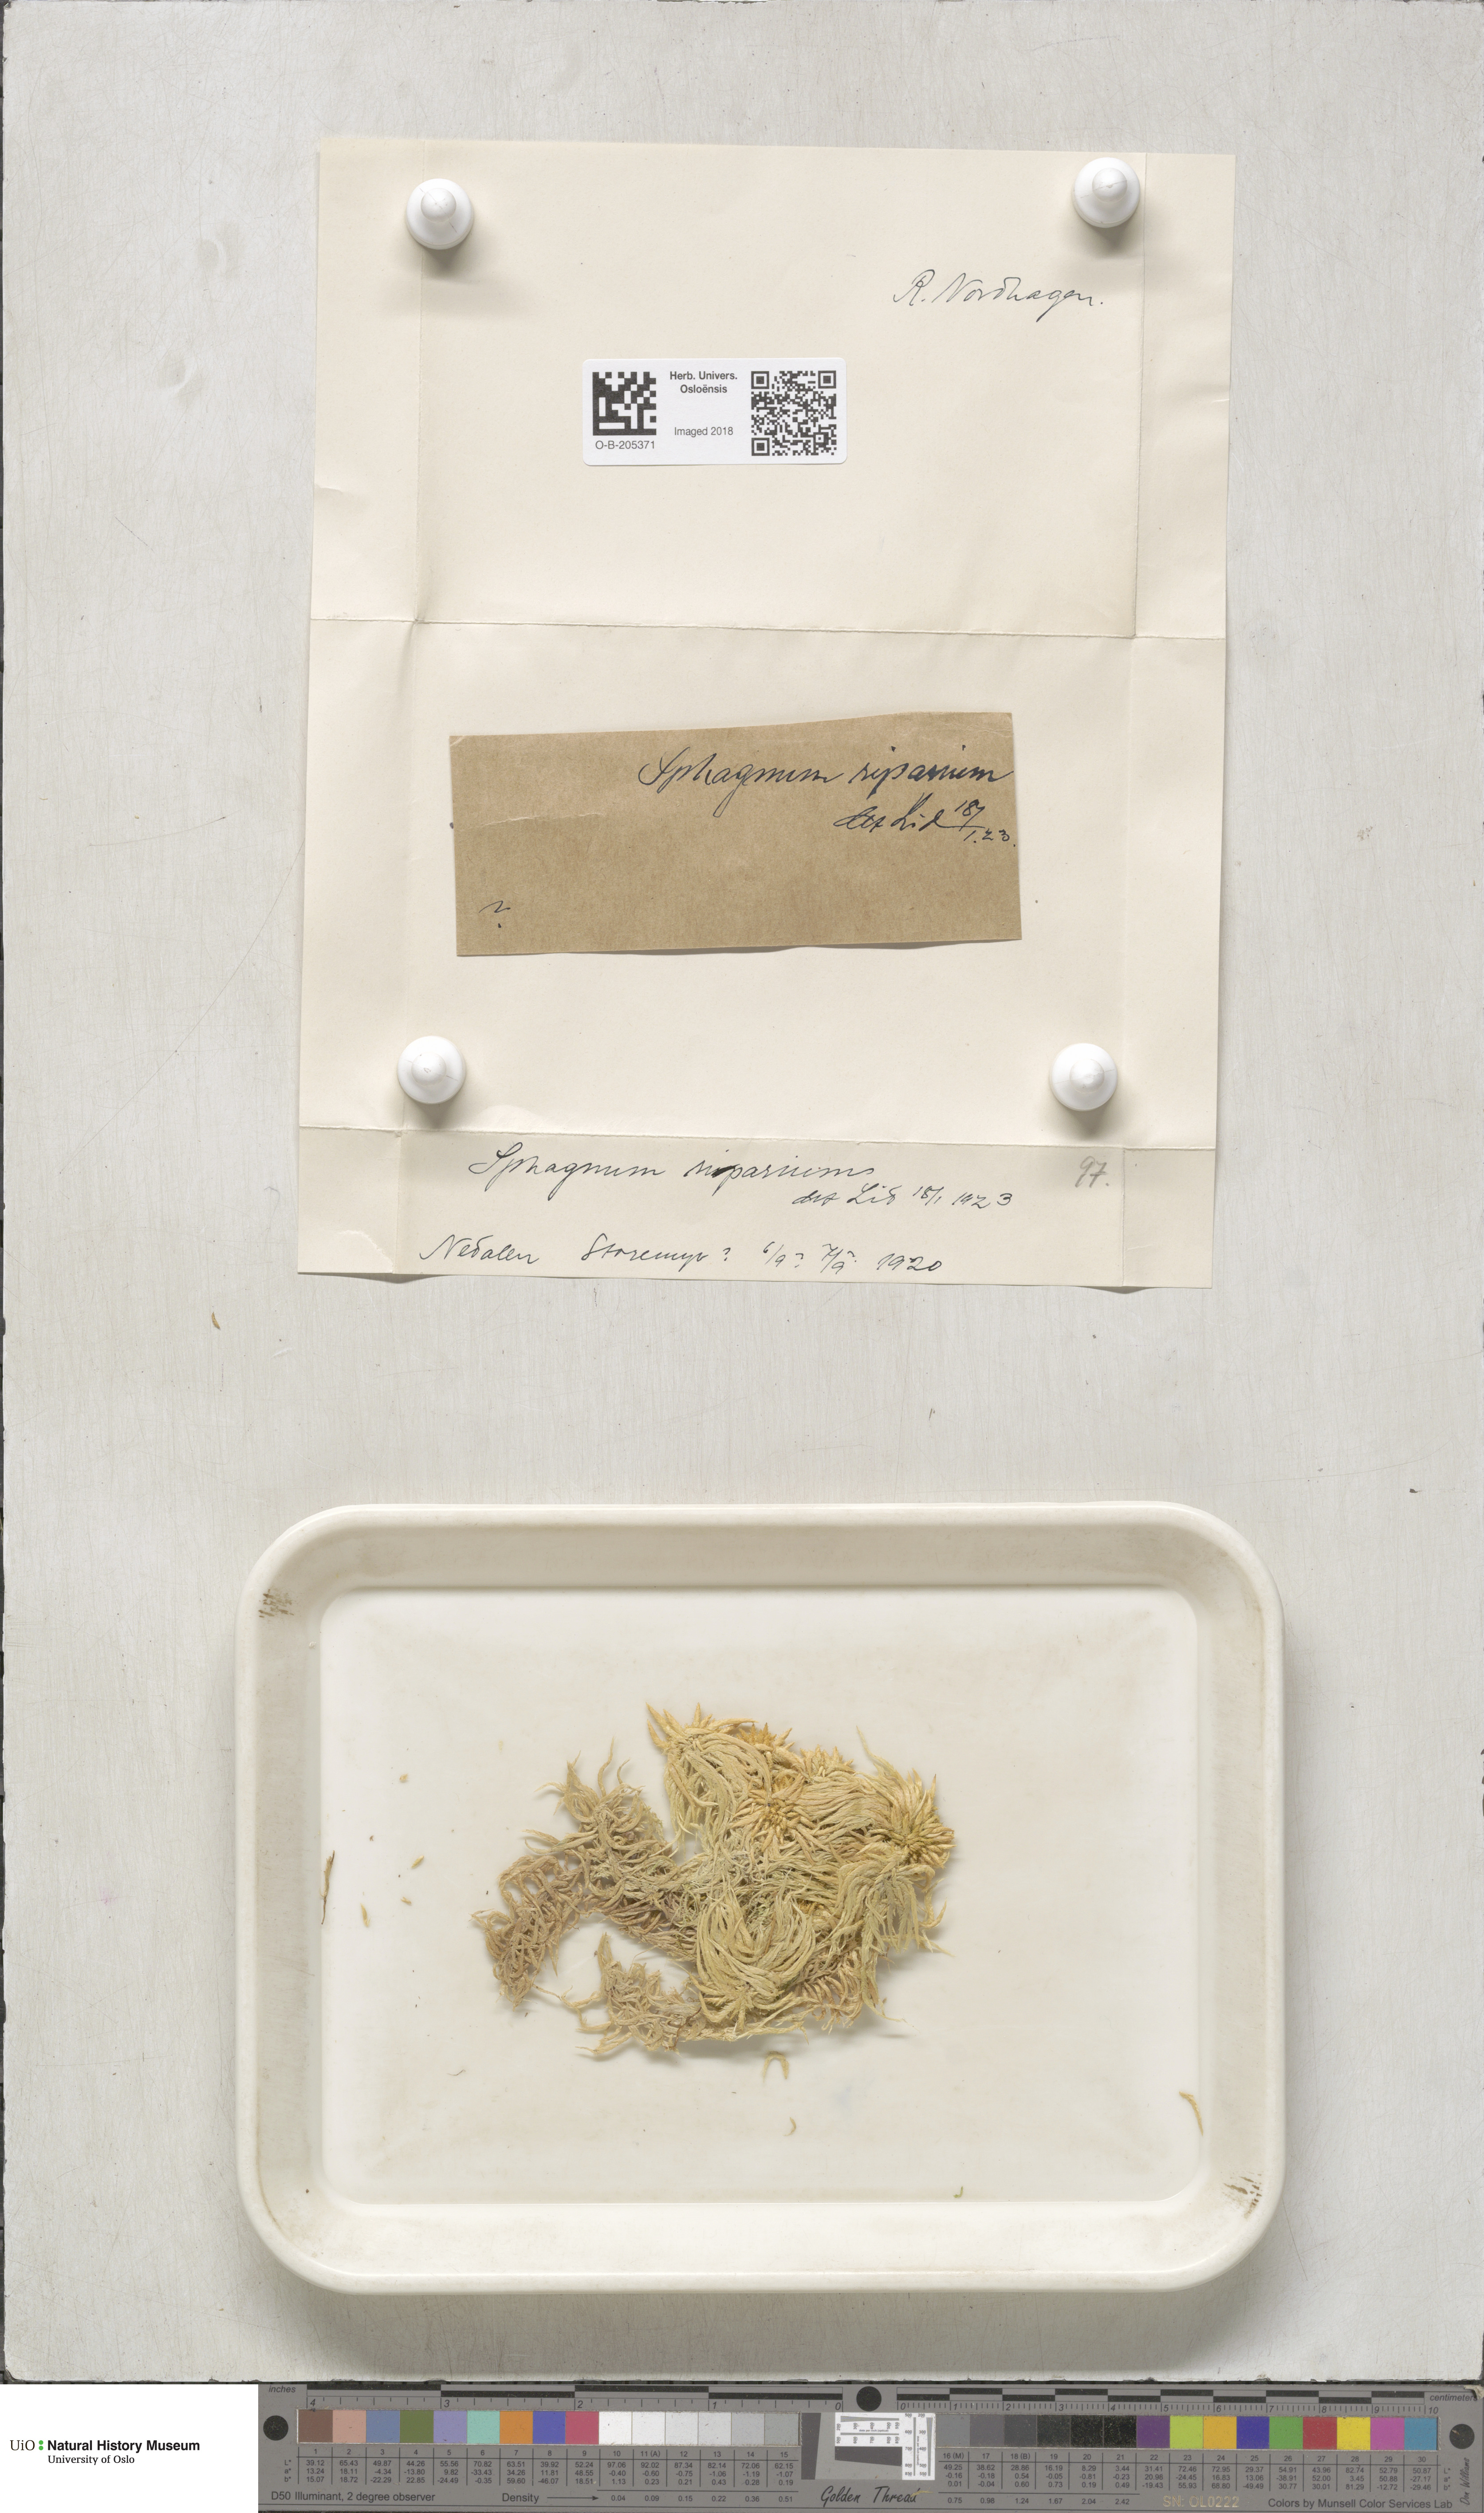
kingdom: Plantae
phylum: Bryophyta
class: Sphagnopsida
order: Sphagnales
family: Sphagnaceae
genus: Sphagnum
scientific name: Sphagnum riparium
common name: Streamside peat moss
